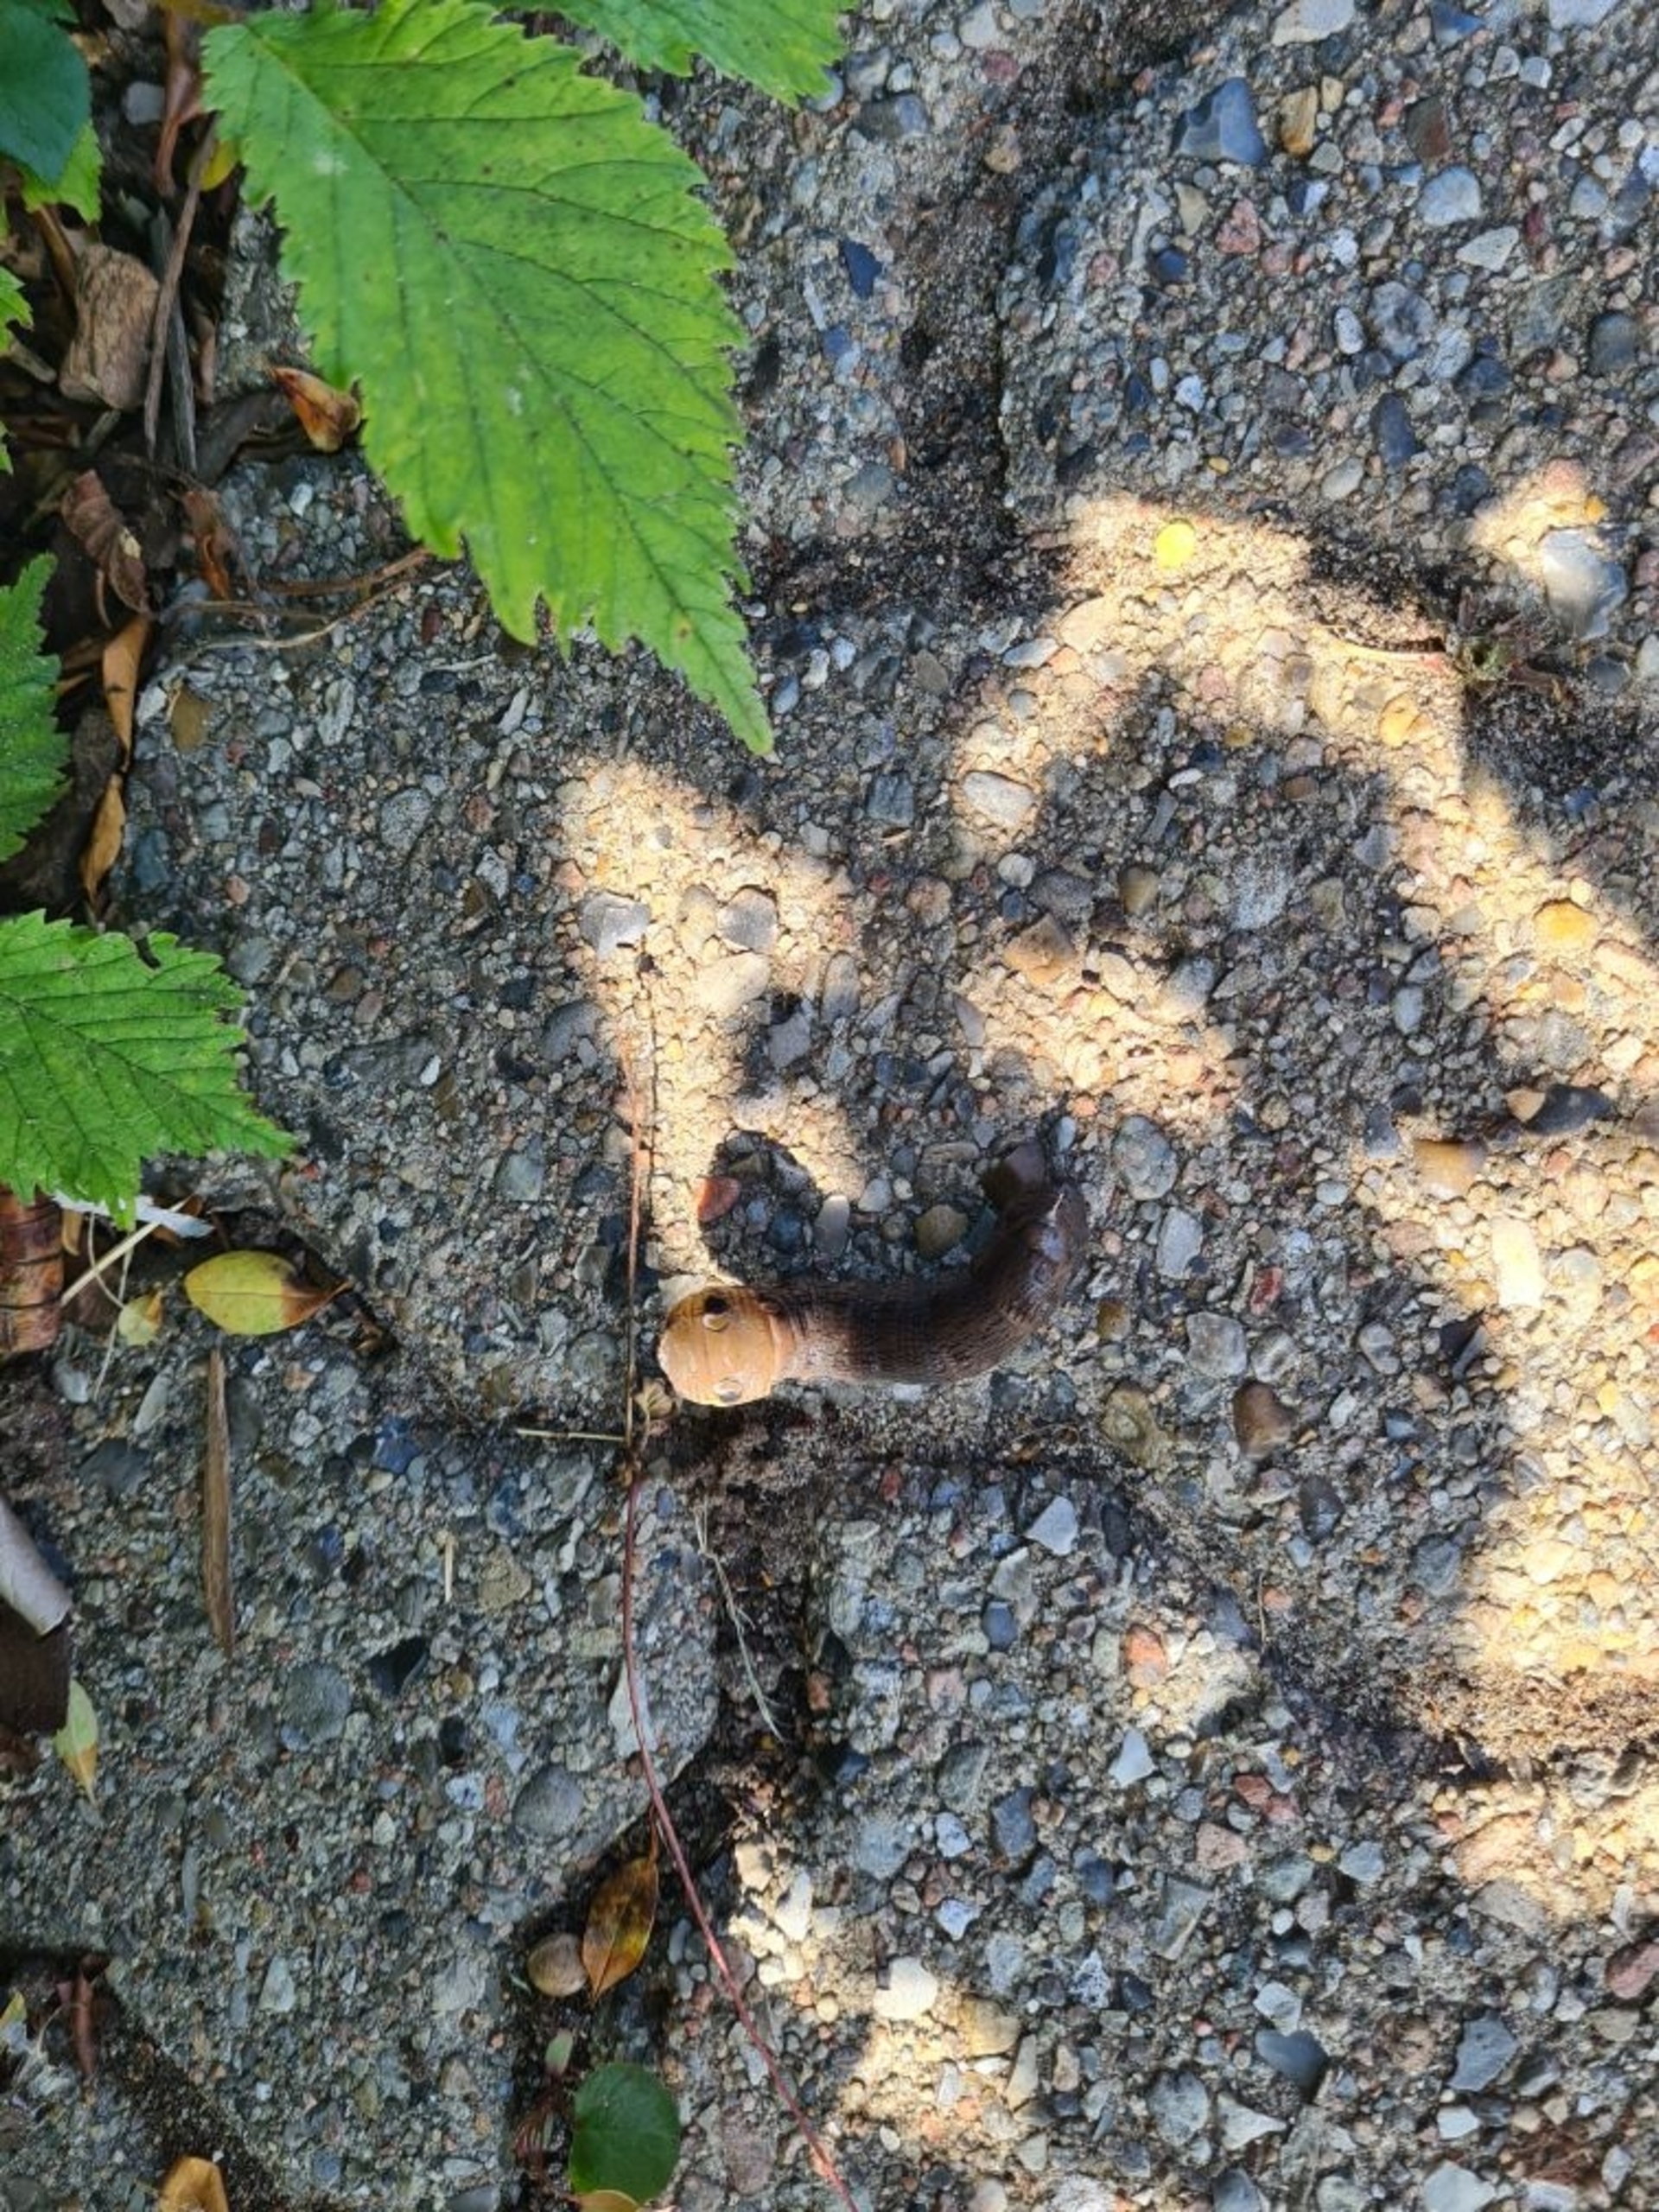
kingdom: Animalia
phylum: Arthropoda
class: Insecta
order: Lepidoptera
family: Sphingidae
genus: Deilephila
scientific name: Deilephila elpenor
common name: Dueurtsværmer
